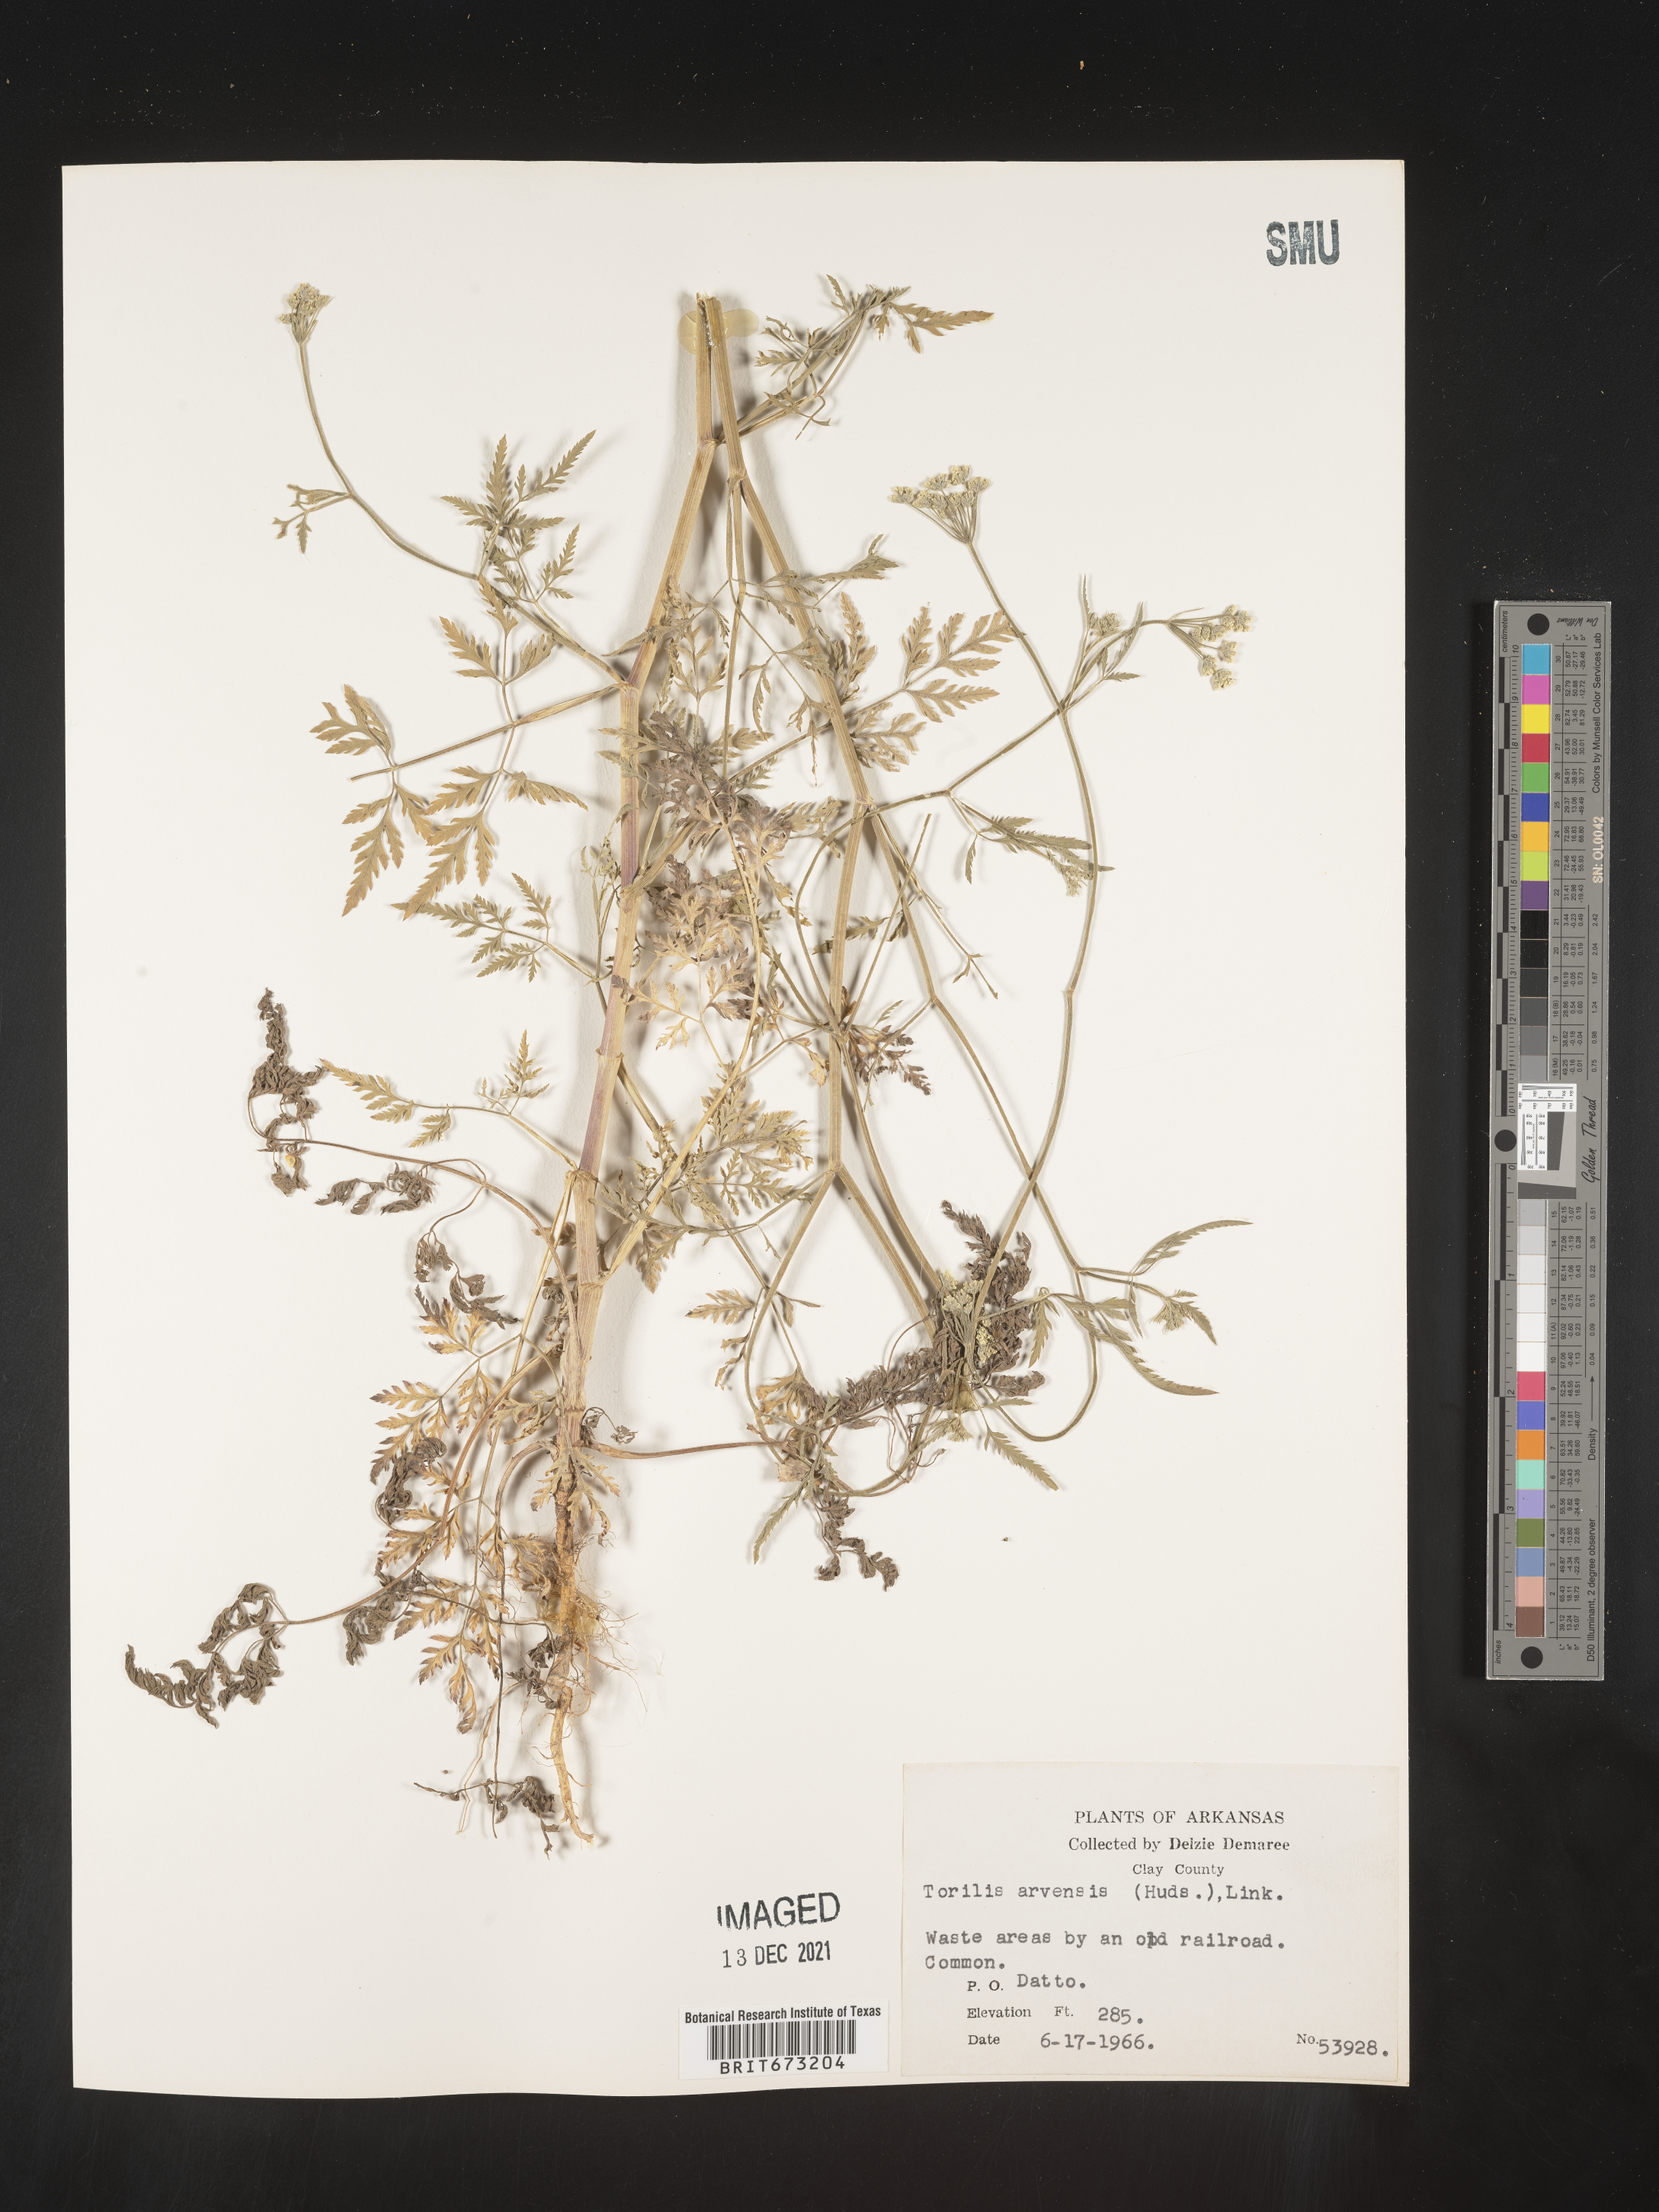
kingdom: Plantae
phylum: Tracheophyta
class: Magnoliopsida
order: Apiales
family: Apiaceae
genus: Torilis
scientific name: Torilis arvensis
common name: Spreading hedge-parsley
